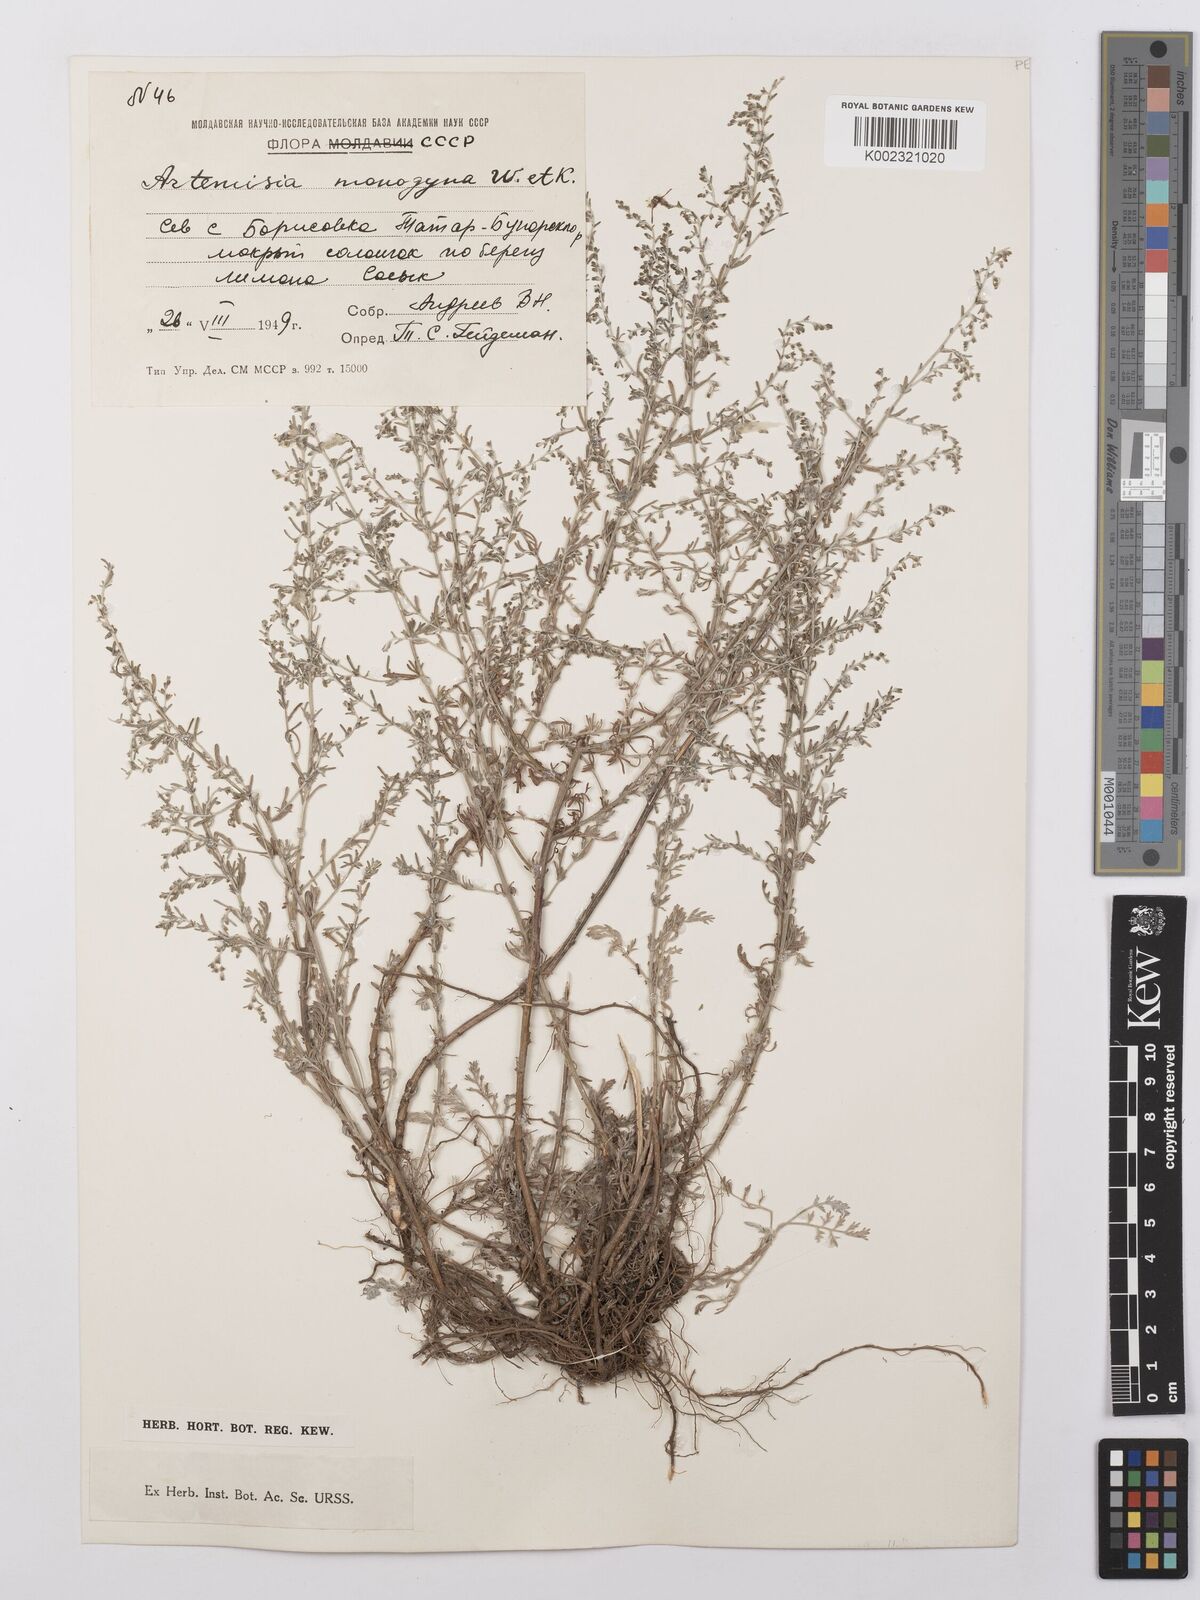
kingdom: Plantae
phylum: Tracheophyta
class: Magnoliopsida
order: Asterales
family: Asteraceae
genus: Artemisia
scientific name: Artemisia santonicum
